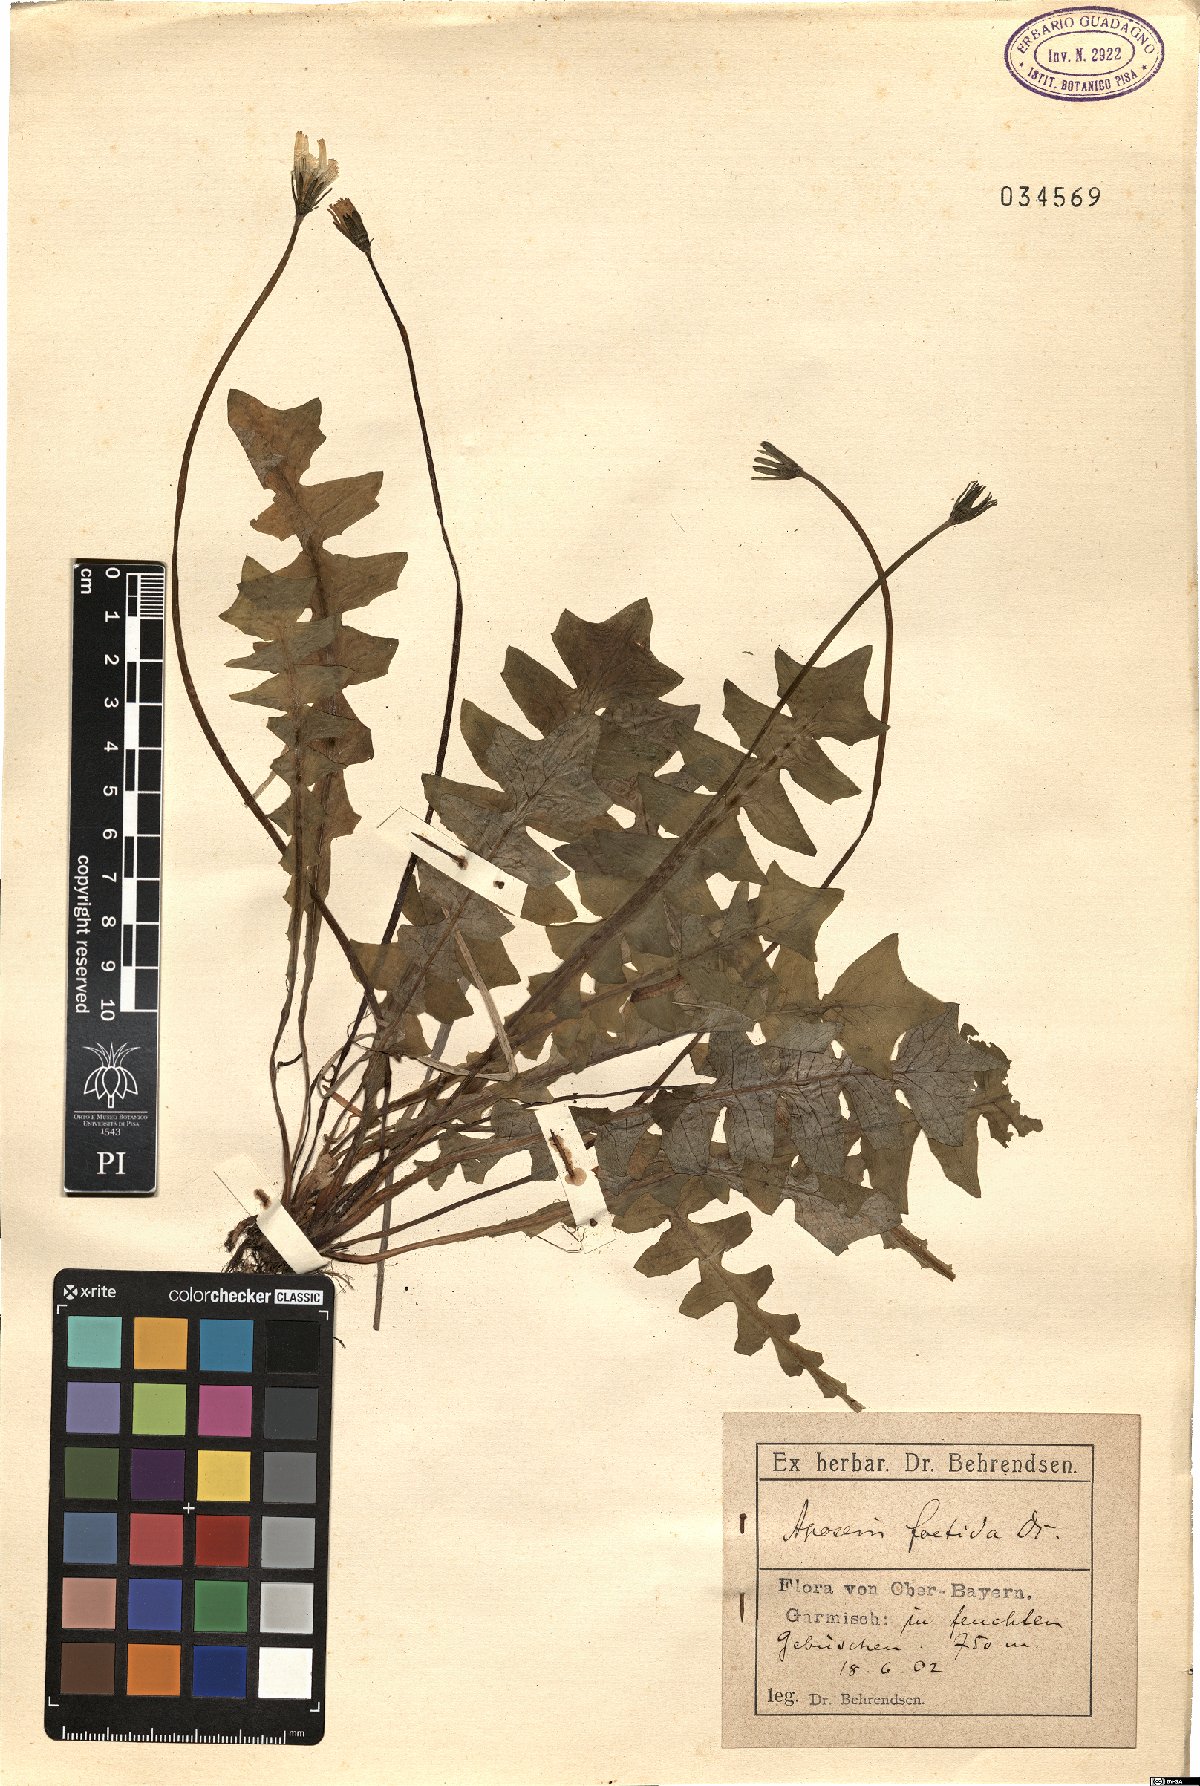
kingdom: Plantae
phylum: Tracheophyta
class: Magnoliopsida
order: Asterales
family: Asteraceae
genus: Aposeris
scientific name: Aposeris foetida
